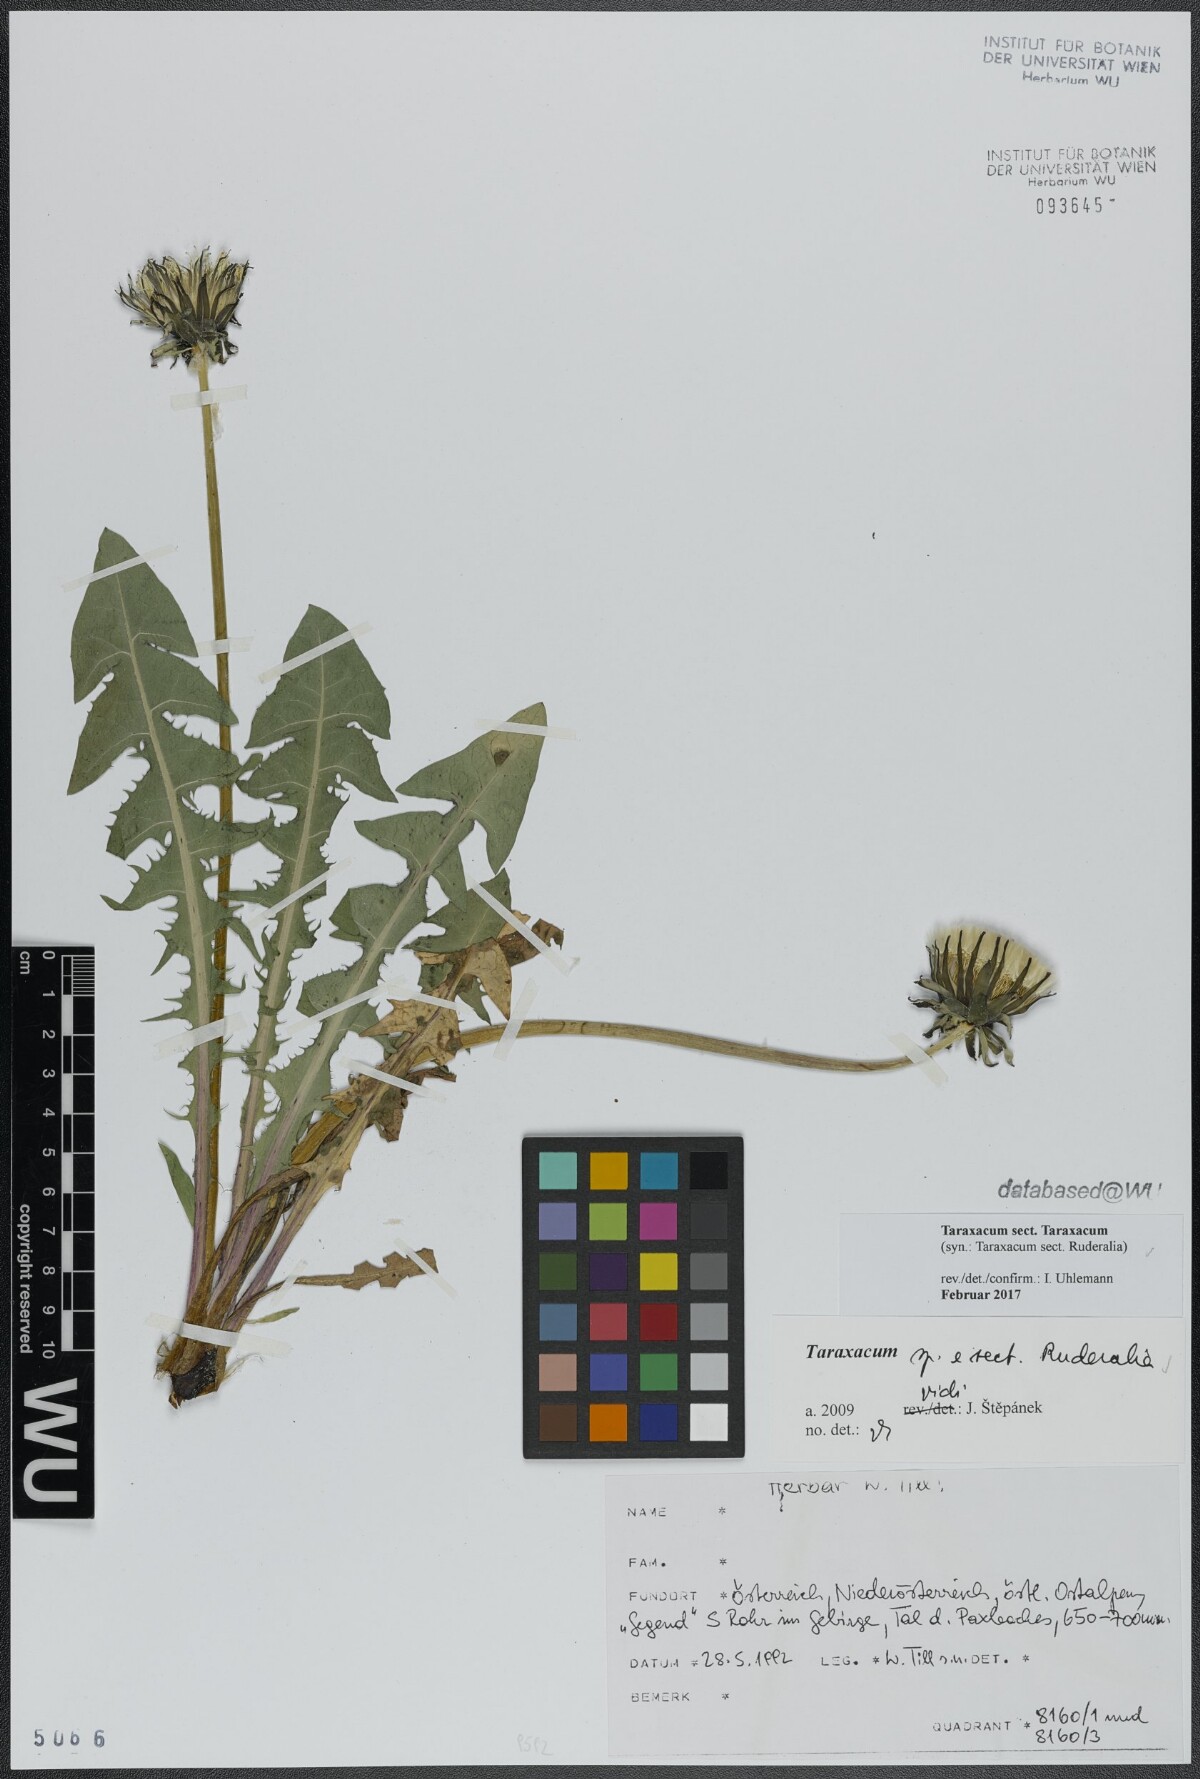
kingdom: Plantae
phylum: Tracheophyta
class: Magnoliopsida
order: Asterales
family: Asteraceae
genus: Taraxacum
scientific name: Taraxacum
